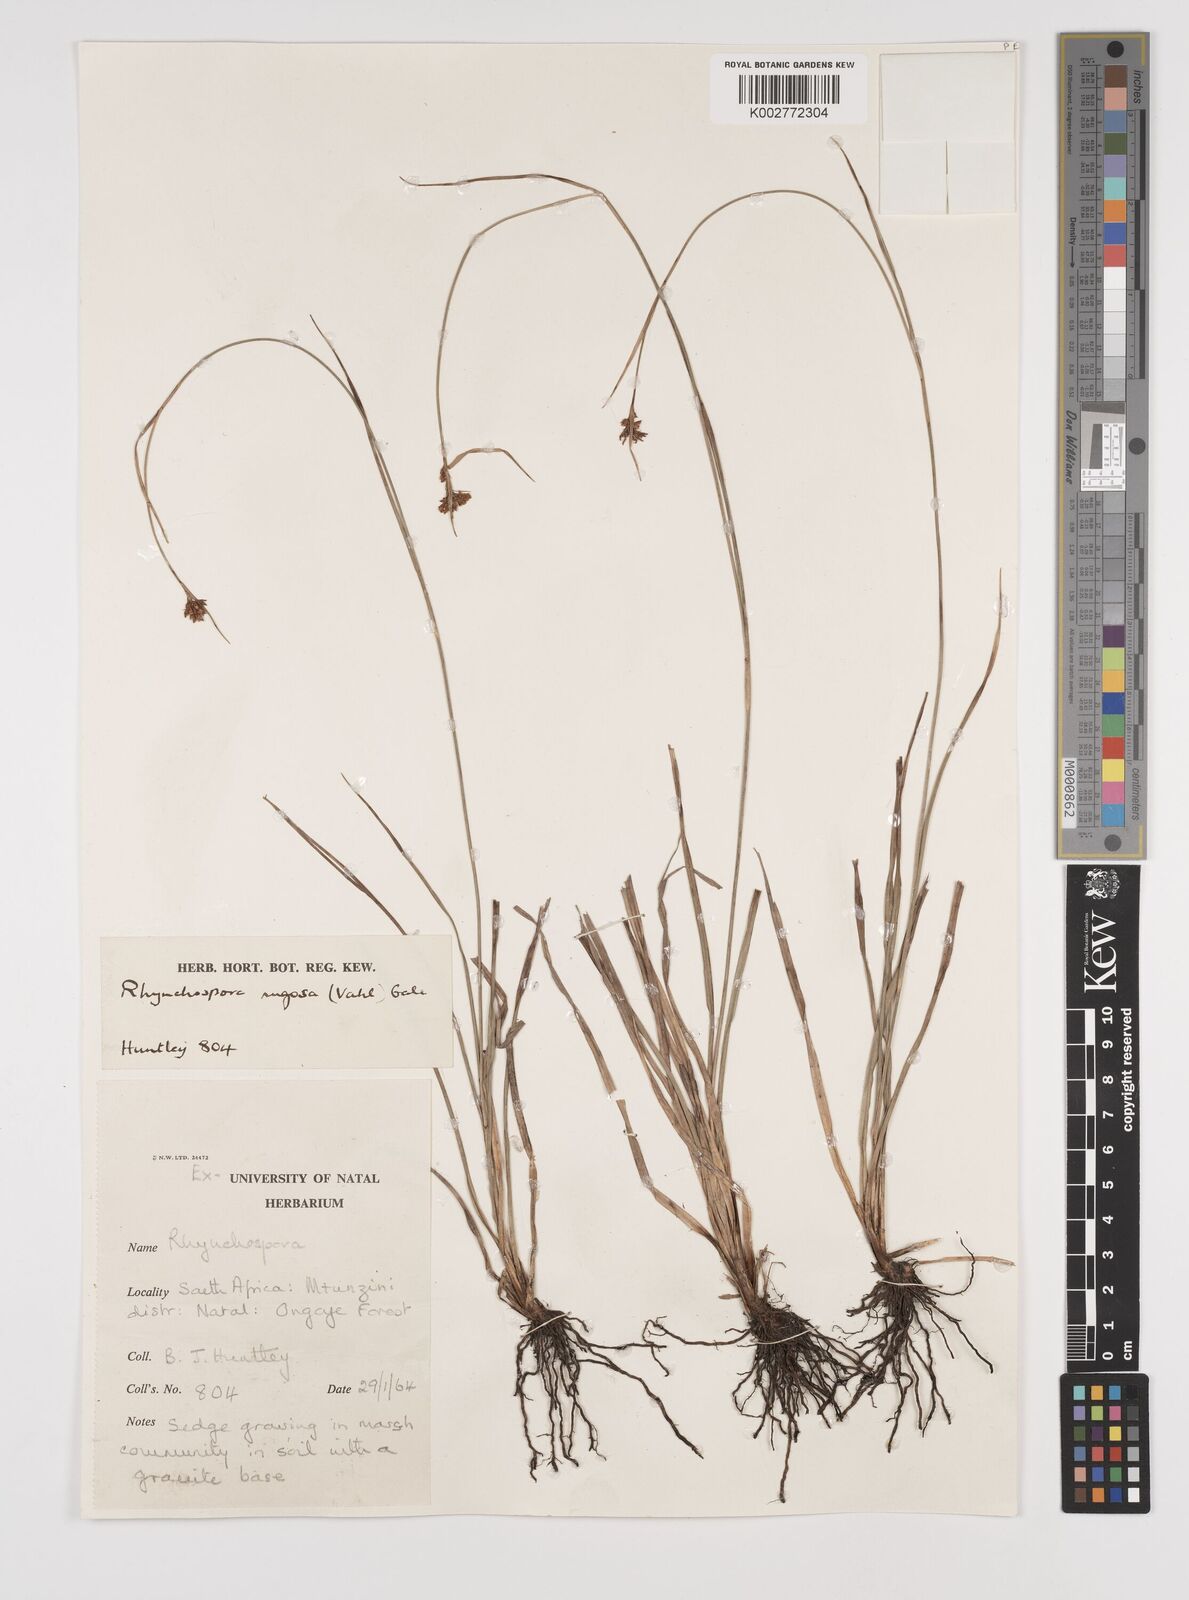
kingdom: Plantae
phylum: Tracheophyta
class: Liliopsida
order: Poales
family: Cyperaceae
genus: Rhynchospora
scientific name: Rhynchospora rugosa
